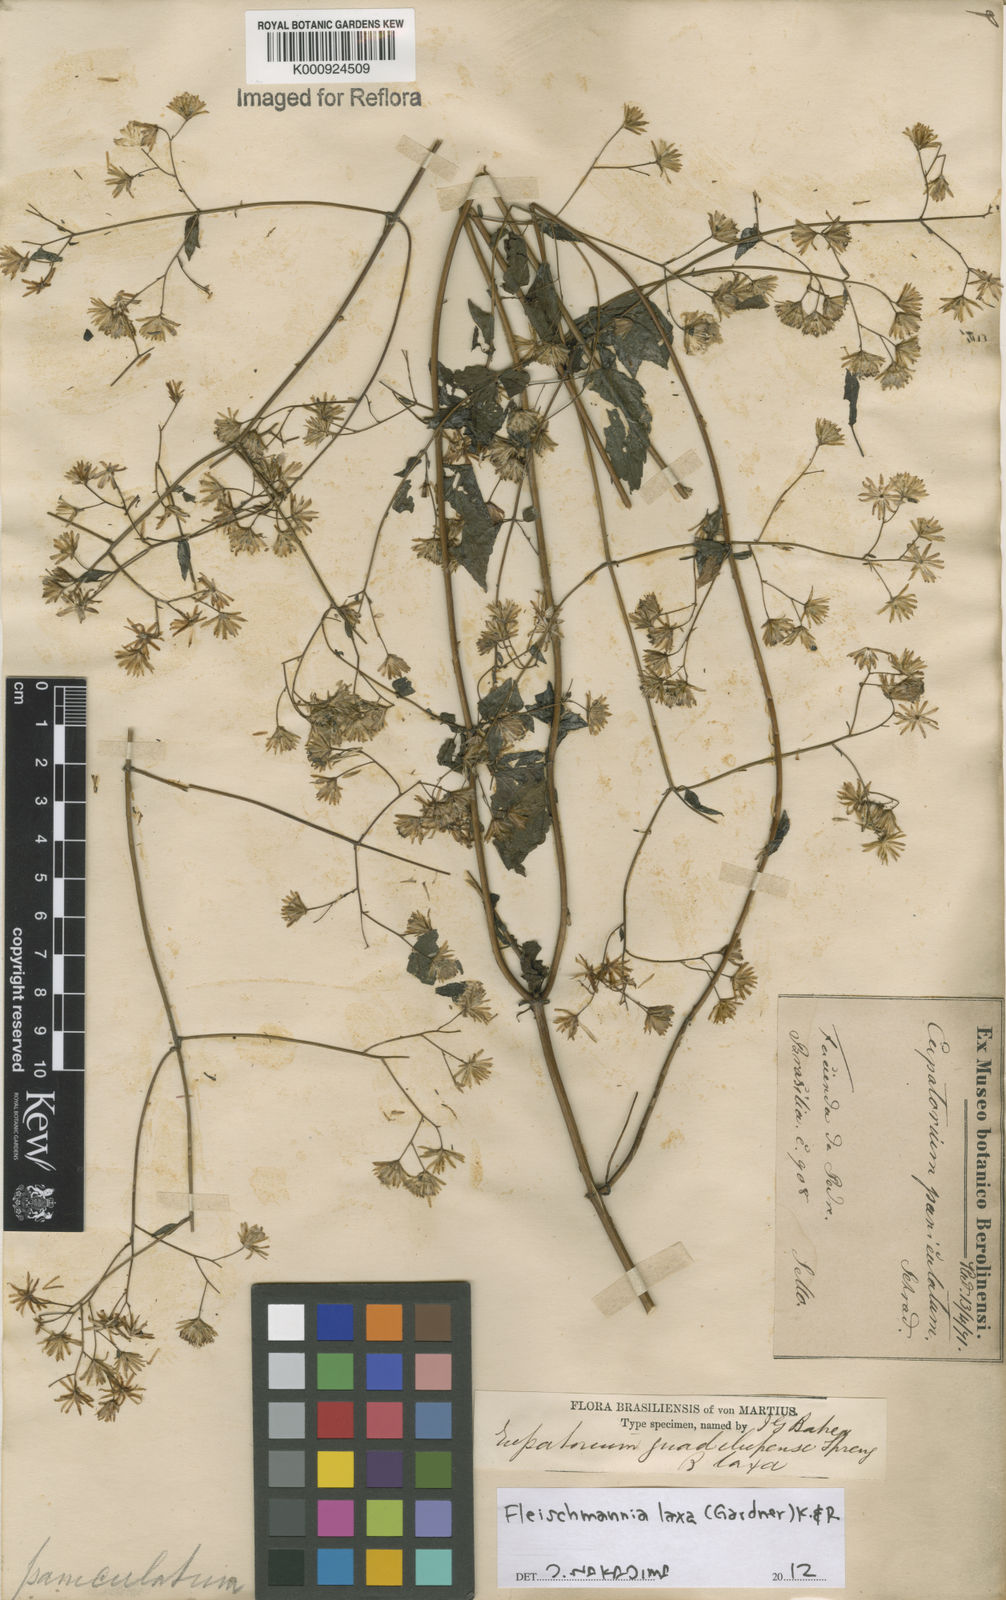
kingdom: Plantae
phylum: Tracheophyta
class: Magnoliopsida
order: Asterales
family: Asteraceae
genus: Fleischmannia
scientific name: Fleischmannia laxa
